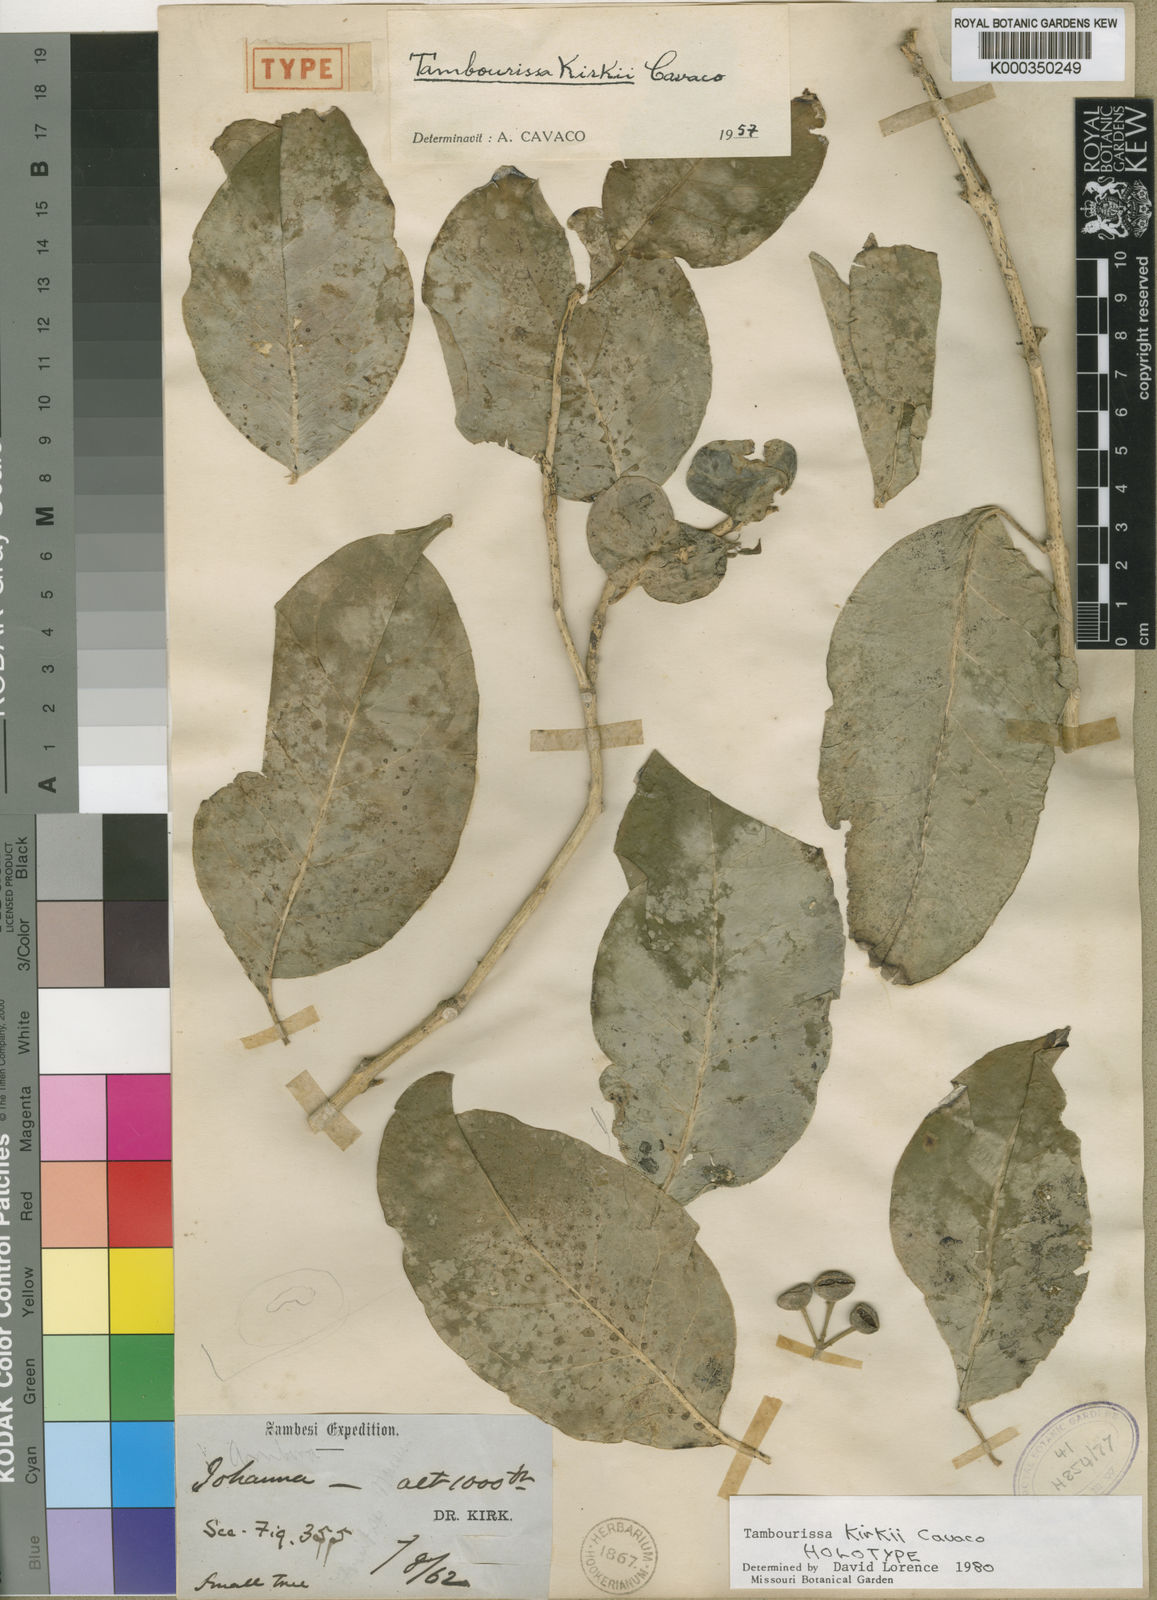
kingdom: Plantae
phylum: Tracheophyta
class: Magnoliopsida
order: Laurales
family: Monimiaceae
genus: Tambourissa
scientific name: Tambourissa kirkii
